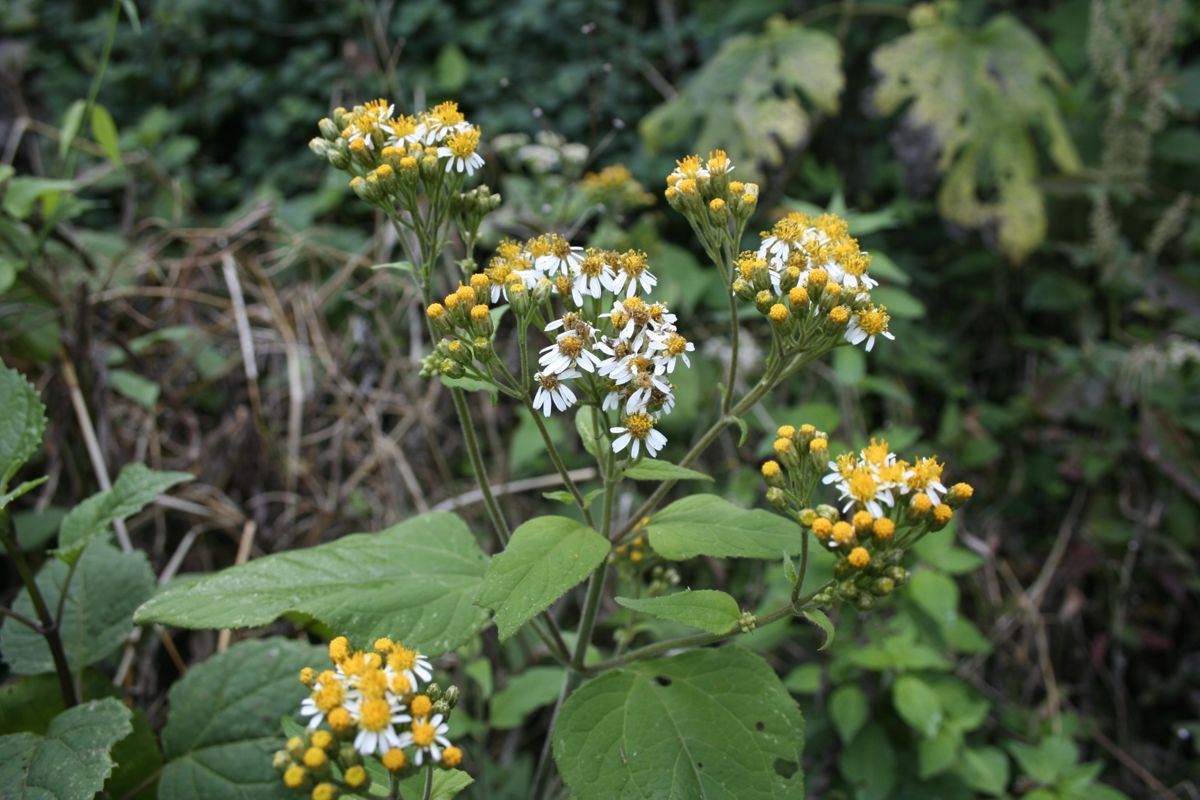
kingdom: Plantae
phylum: Tracheophyta
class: Magnoliopsida
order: Asterales
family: Asteraceae
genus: Schistocarpha
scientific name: Schistocarpha platyphylla
